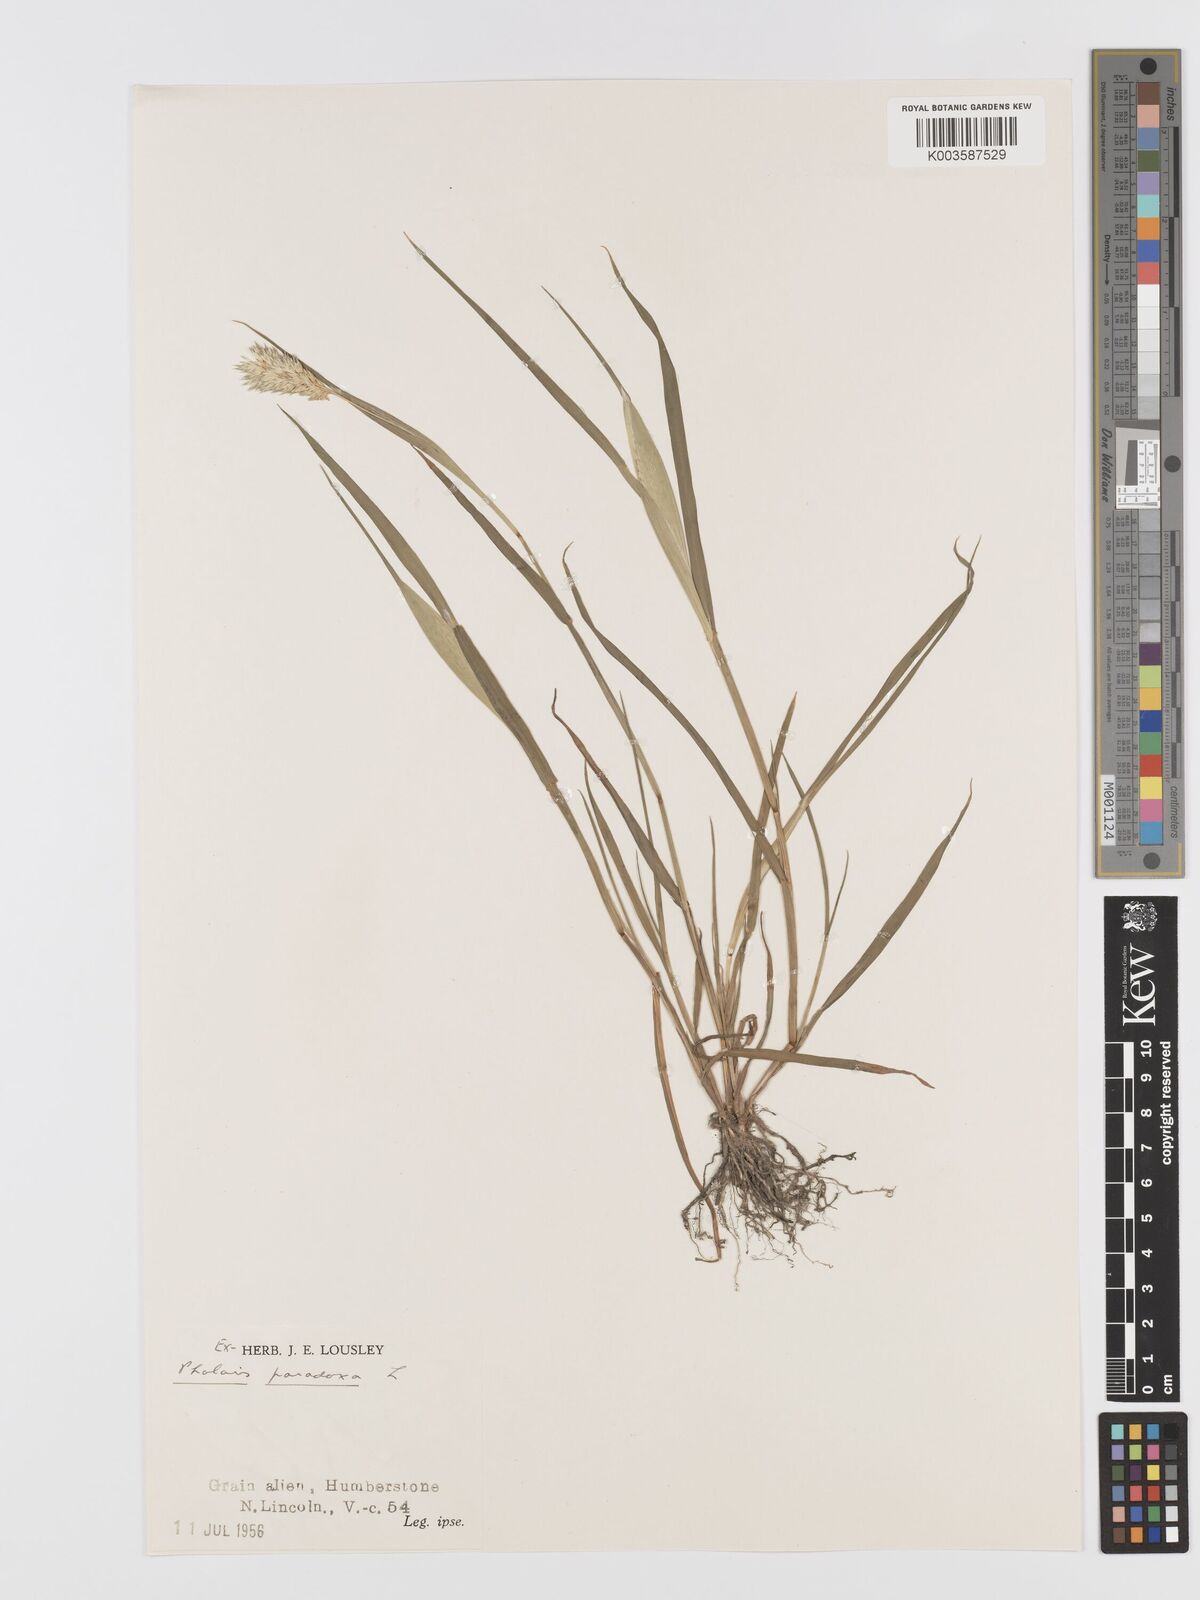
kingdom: Plantae
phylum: Tracheophyta
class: Liliopsida
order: Poales
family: Poaceae
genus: Phalaris
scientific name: Phalaris paradoxa
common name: Awned canary-grass
